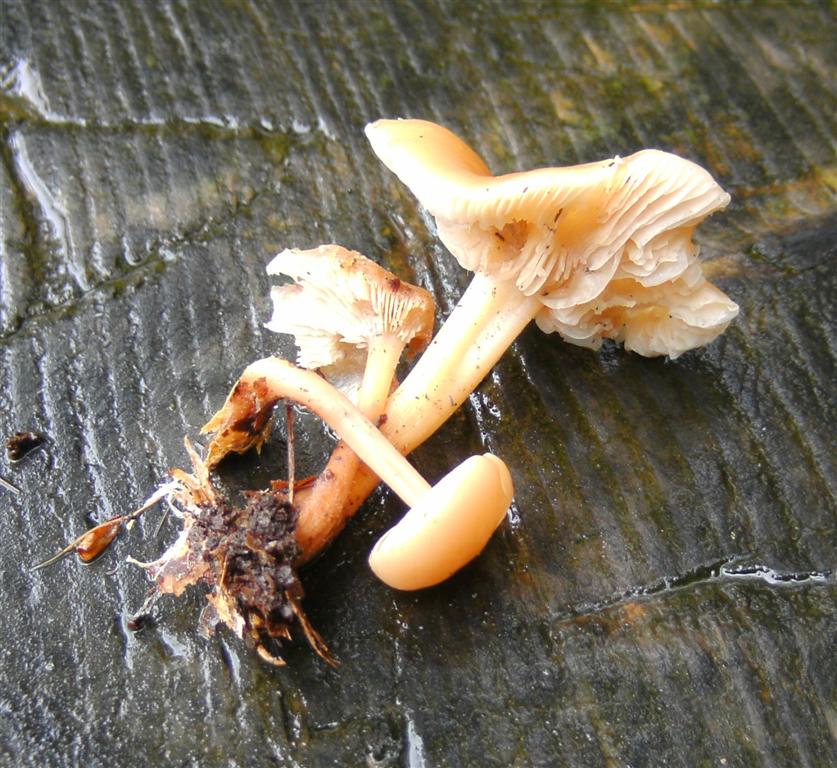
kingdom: Fungi
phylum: Basidiomycota
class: Agaricomycetes
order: Agaricales
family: Omphalotaceae
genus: Gymnopus
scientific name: Gymnopus dryophilus
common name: løv-fladhat
